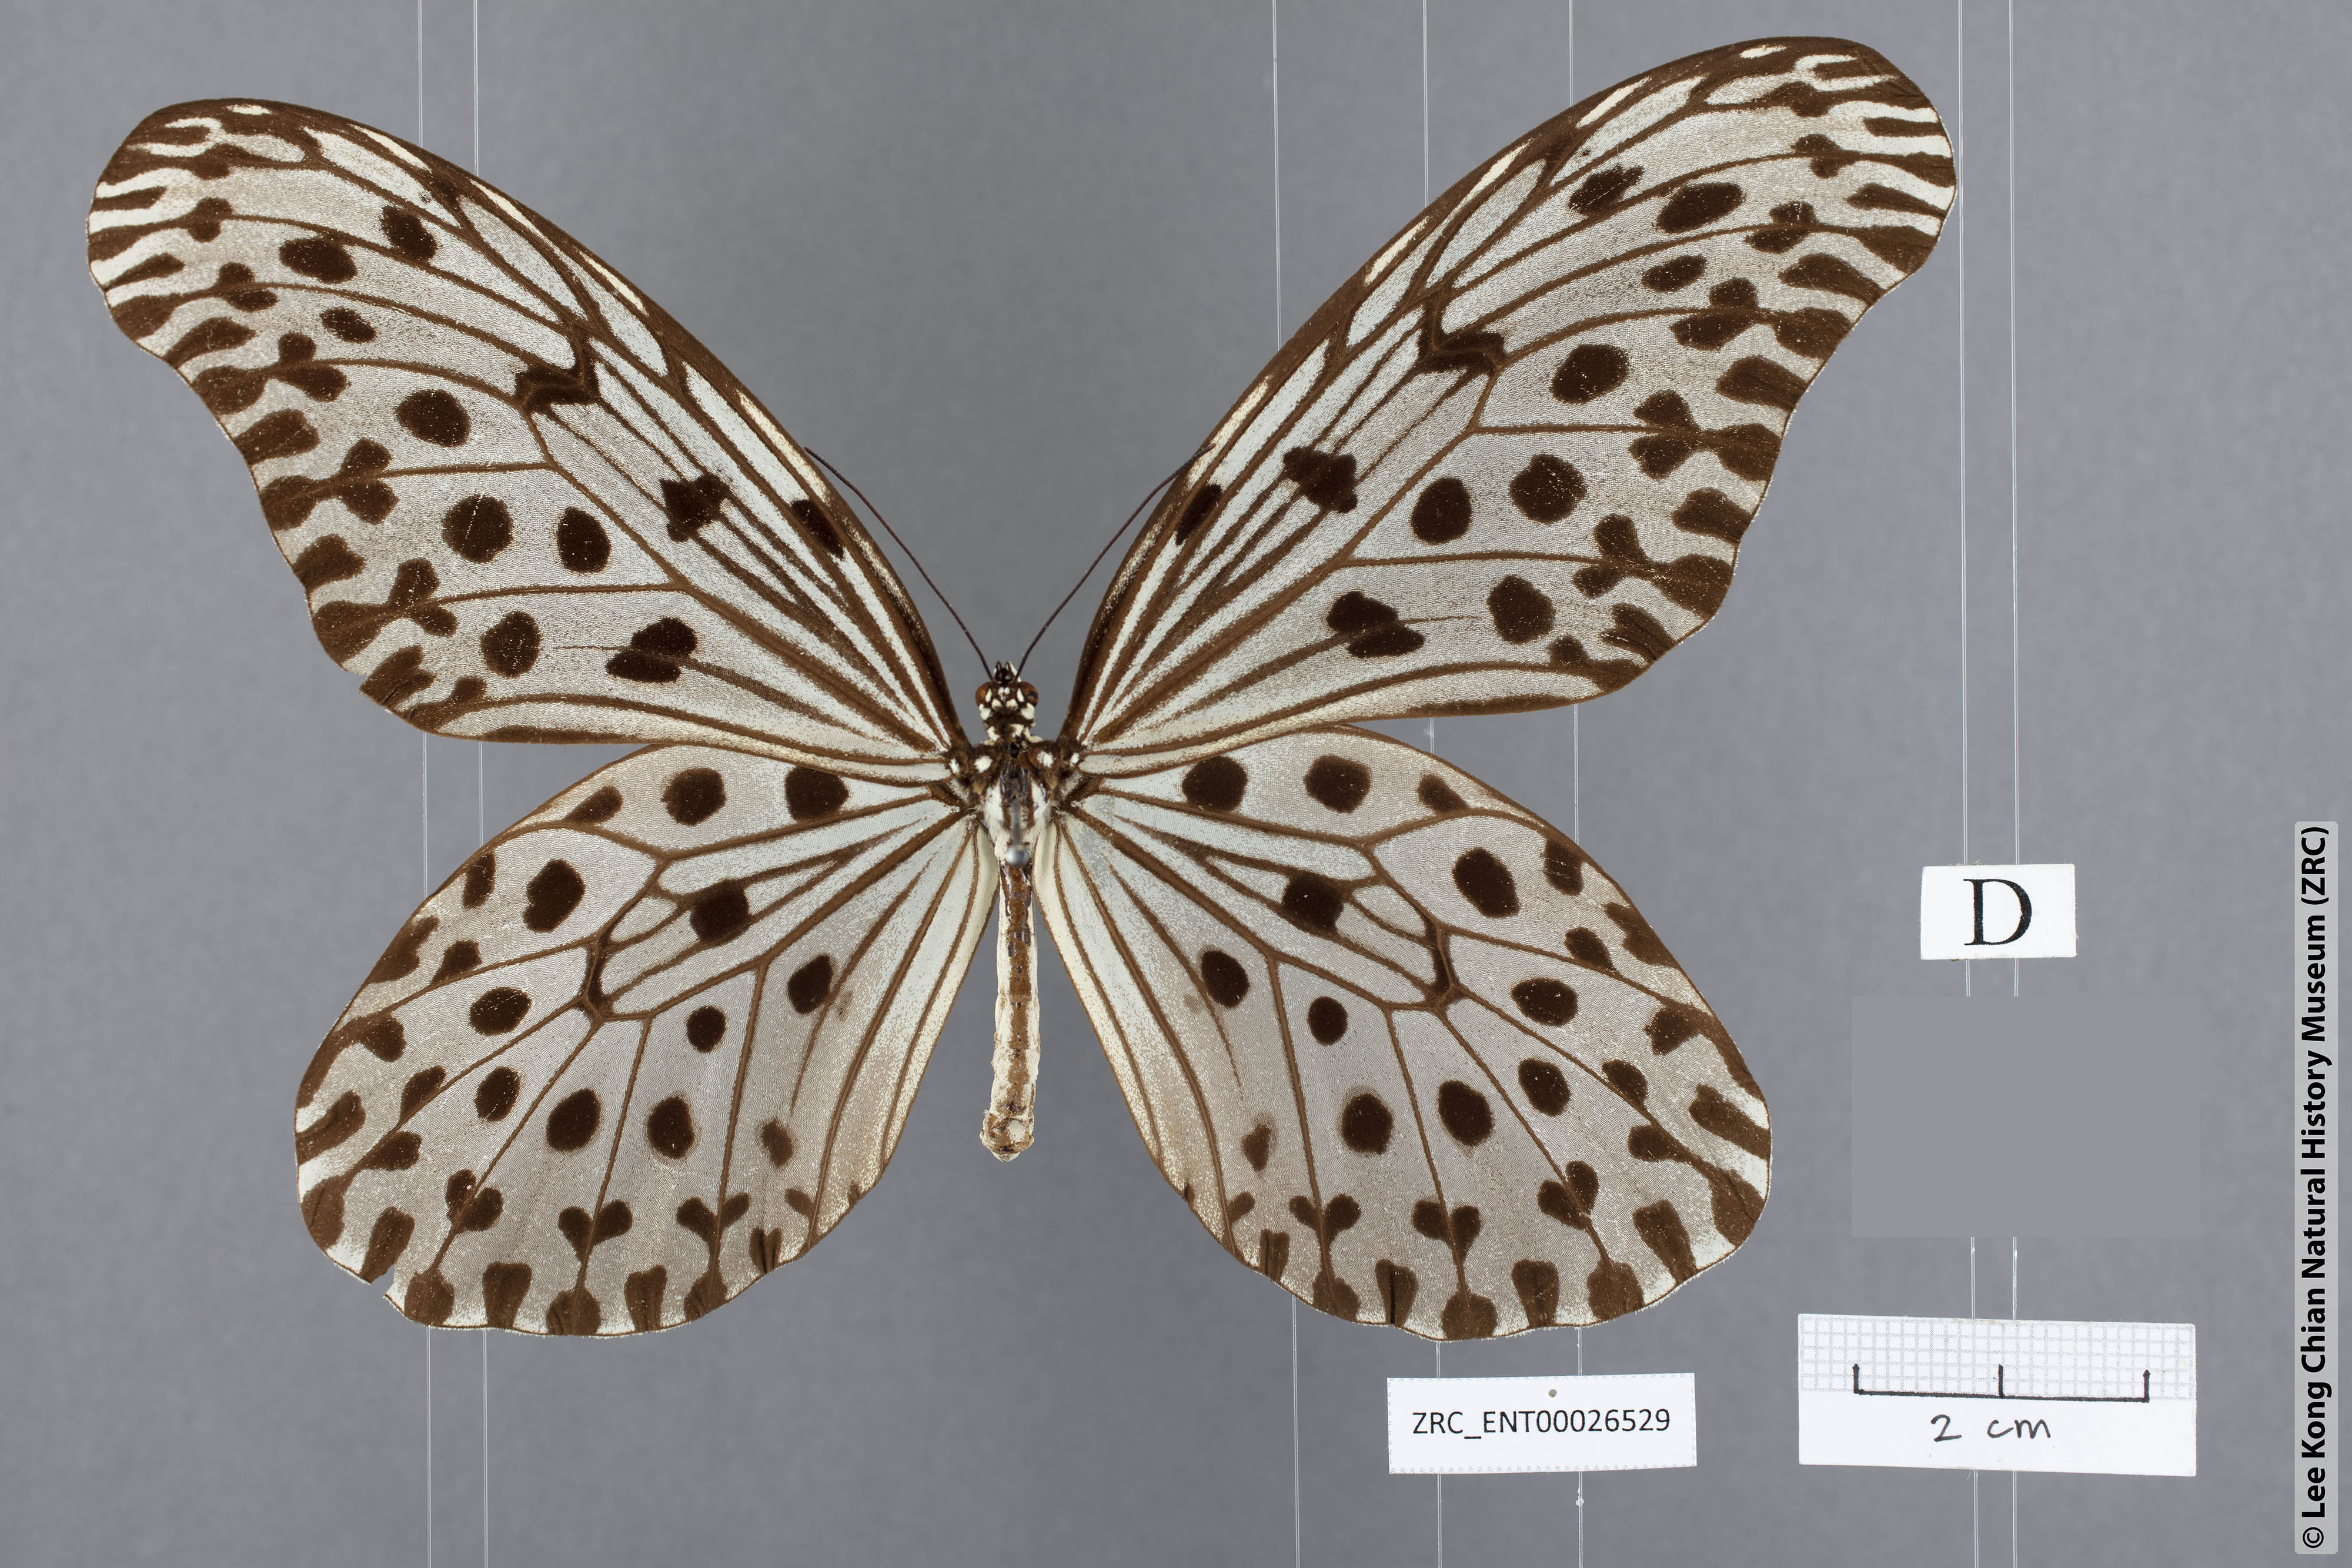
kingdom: Animalia
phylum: Arthropoda
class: Insecta
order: Lepidoptera
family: Nymphalidae
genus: Idea
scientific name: Idea stolli
